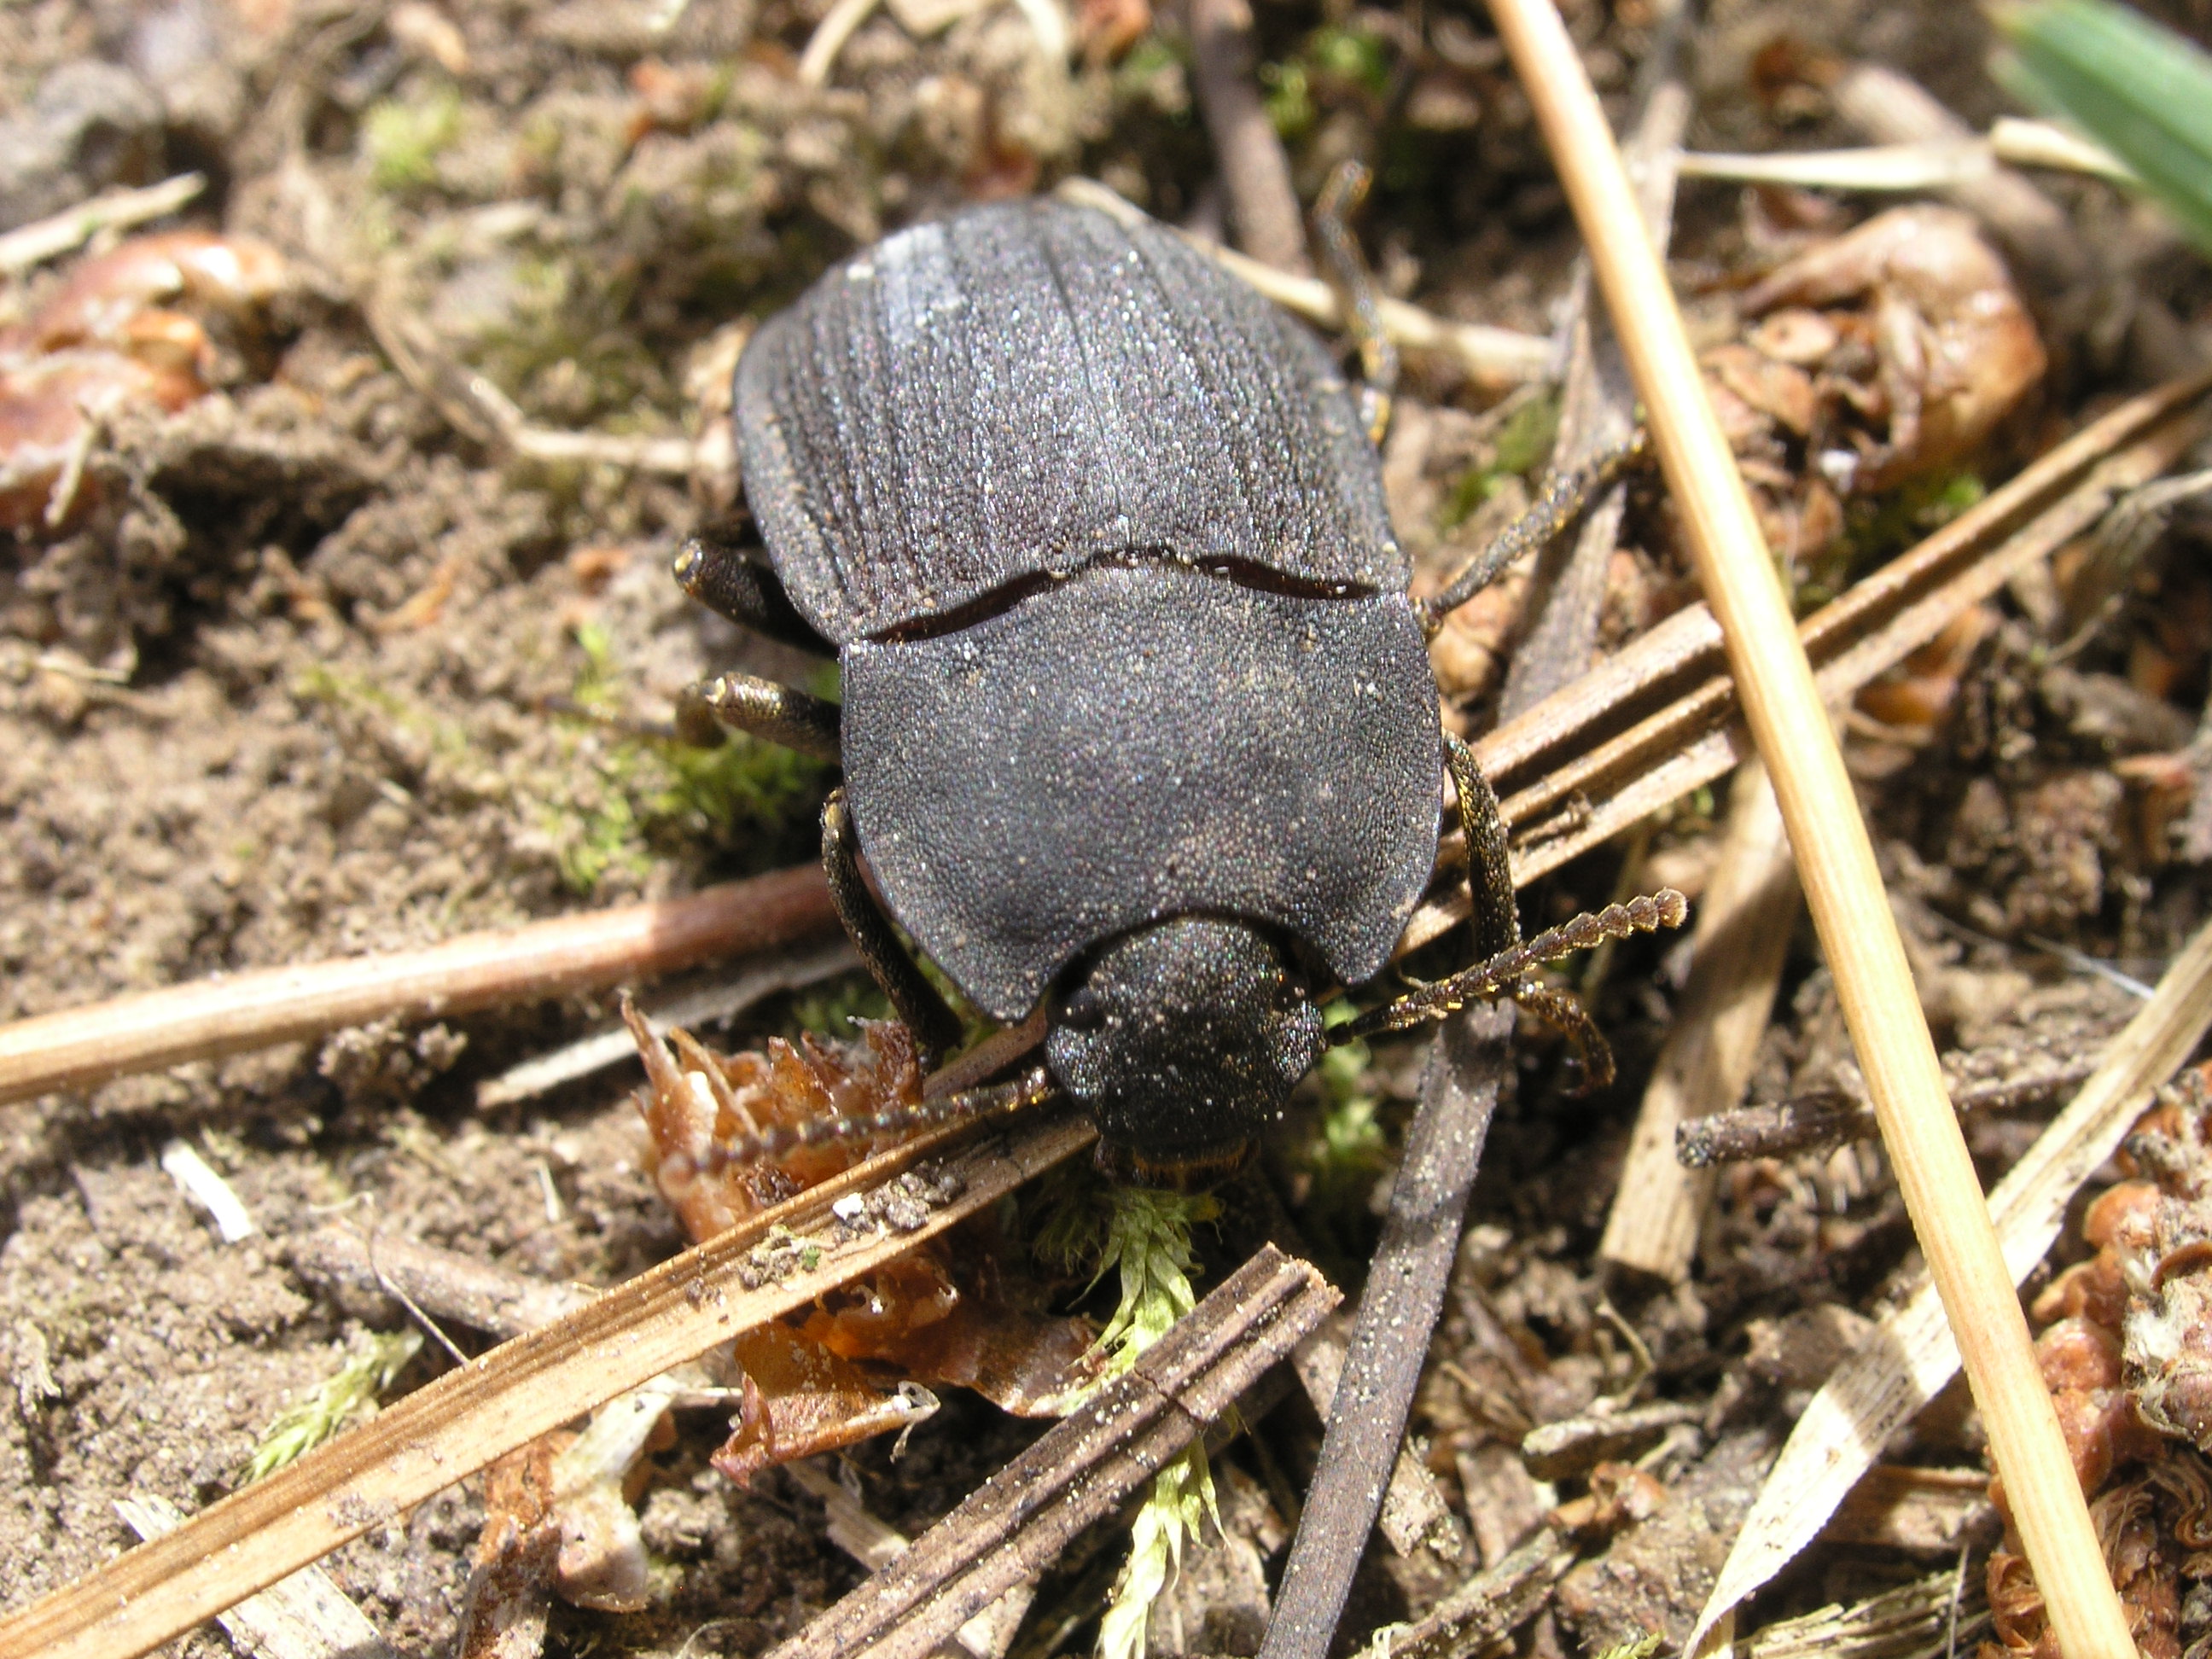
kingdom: Animalia
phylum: Arthropoda
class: Insecta
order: Coleoptera
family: Tenebrionidae
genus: Mimopeus
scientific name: Mimopeus
